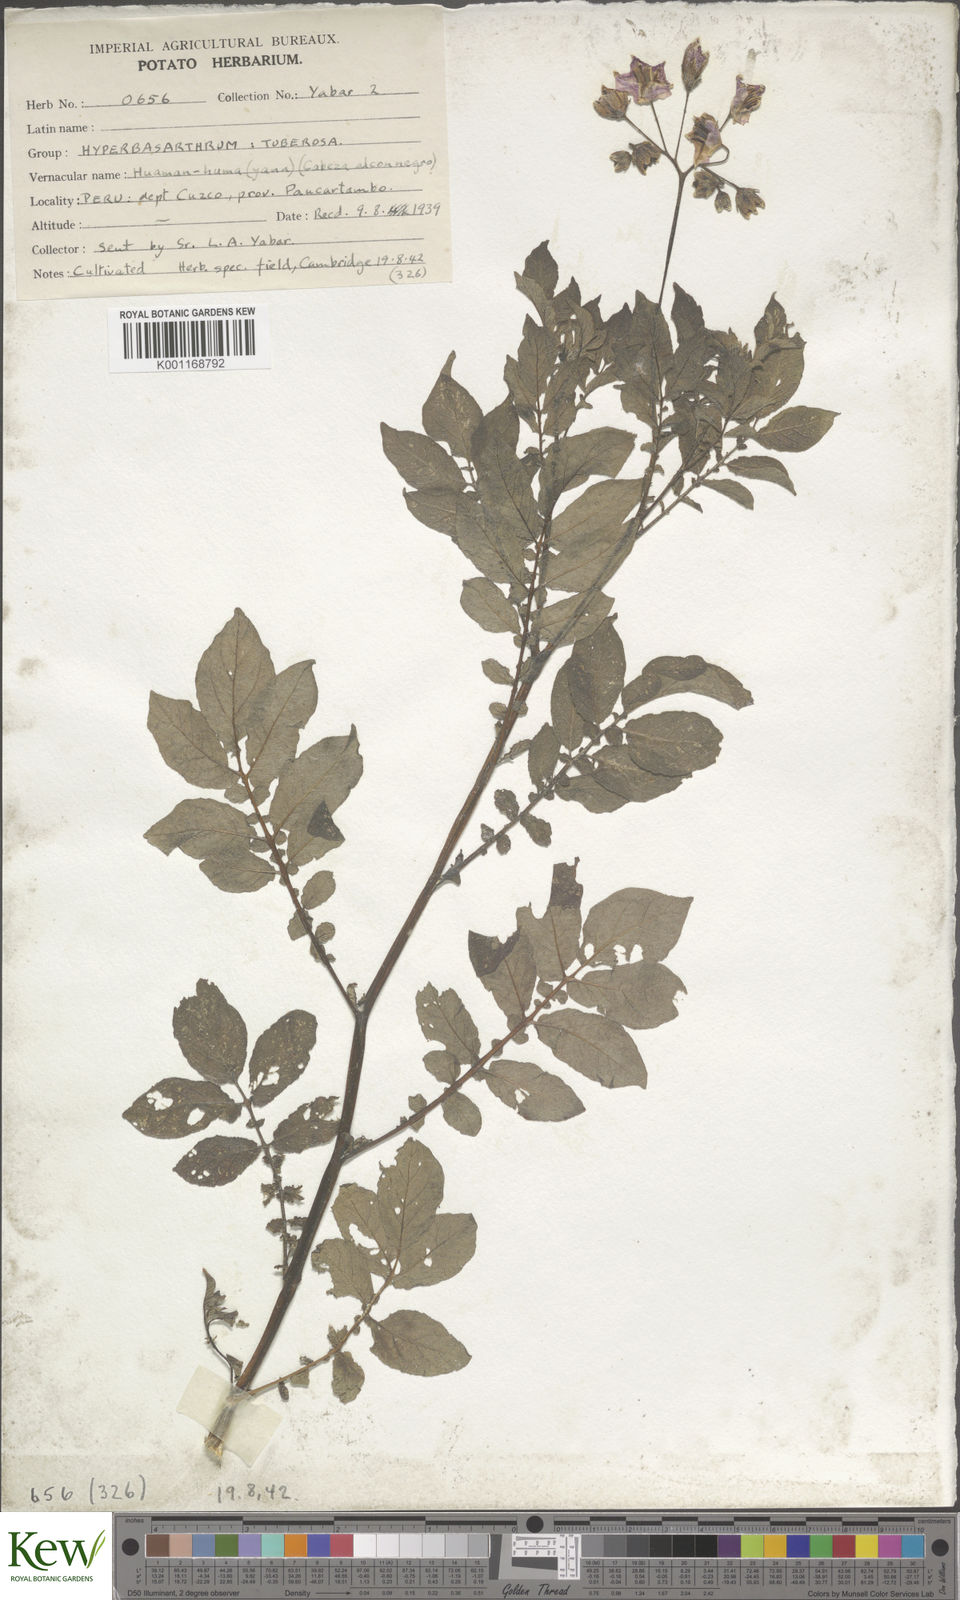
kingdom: Plantae
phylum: Tracheophyta
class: Magnoliopsida
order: Solanales
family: Solanaceae
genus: Solanum
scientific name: Solanum chaucha
